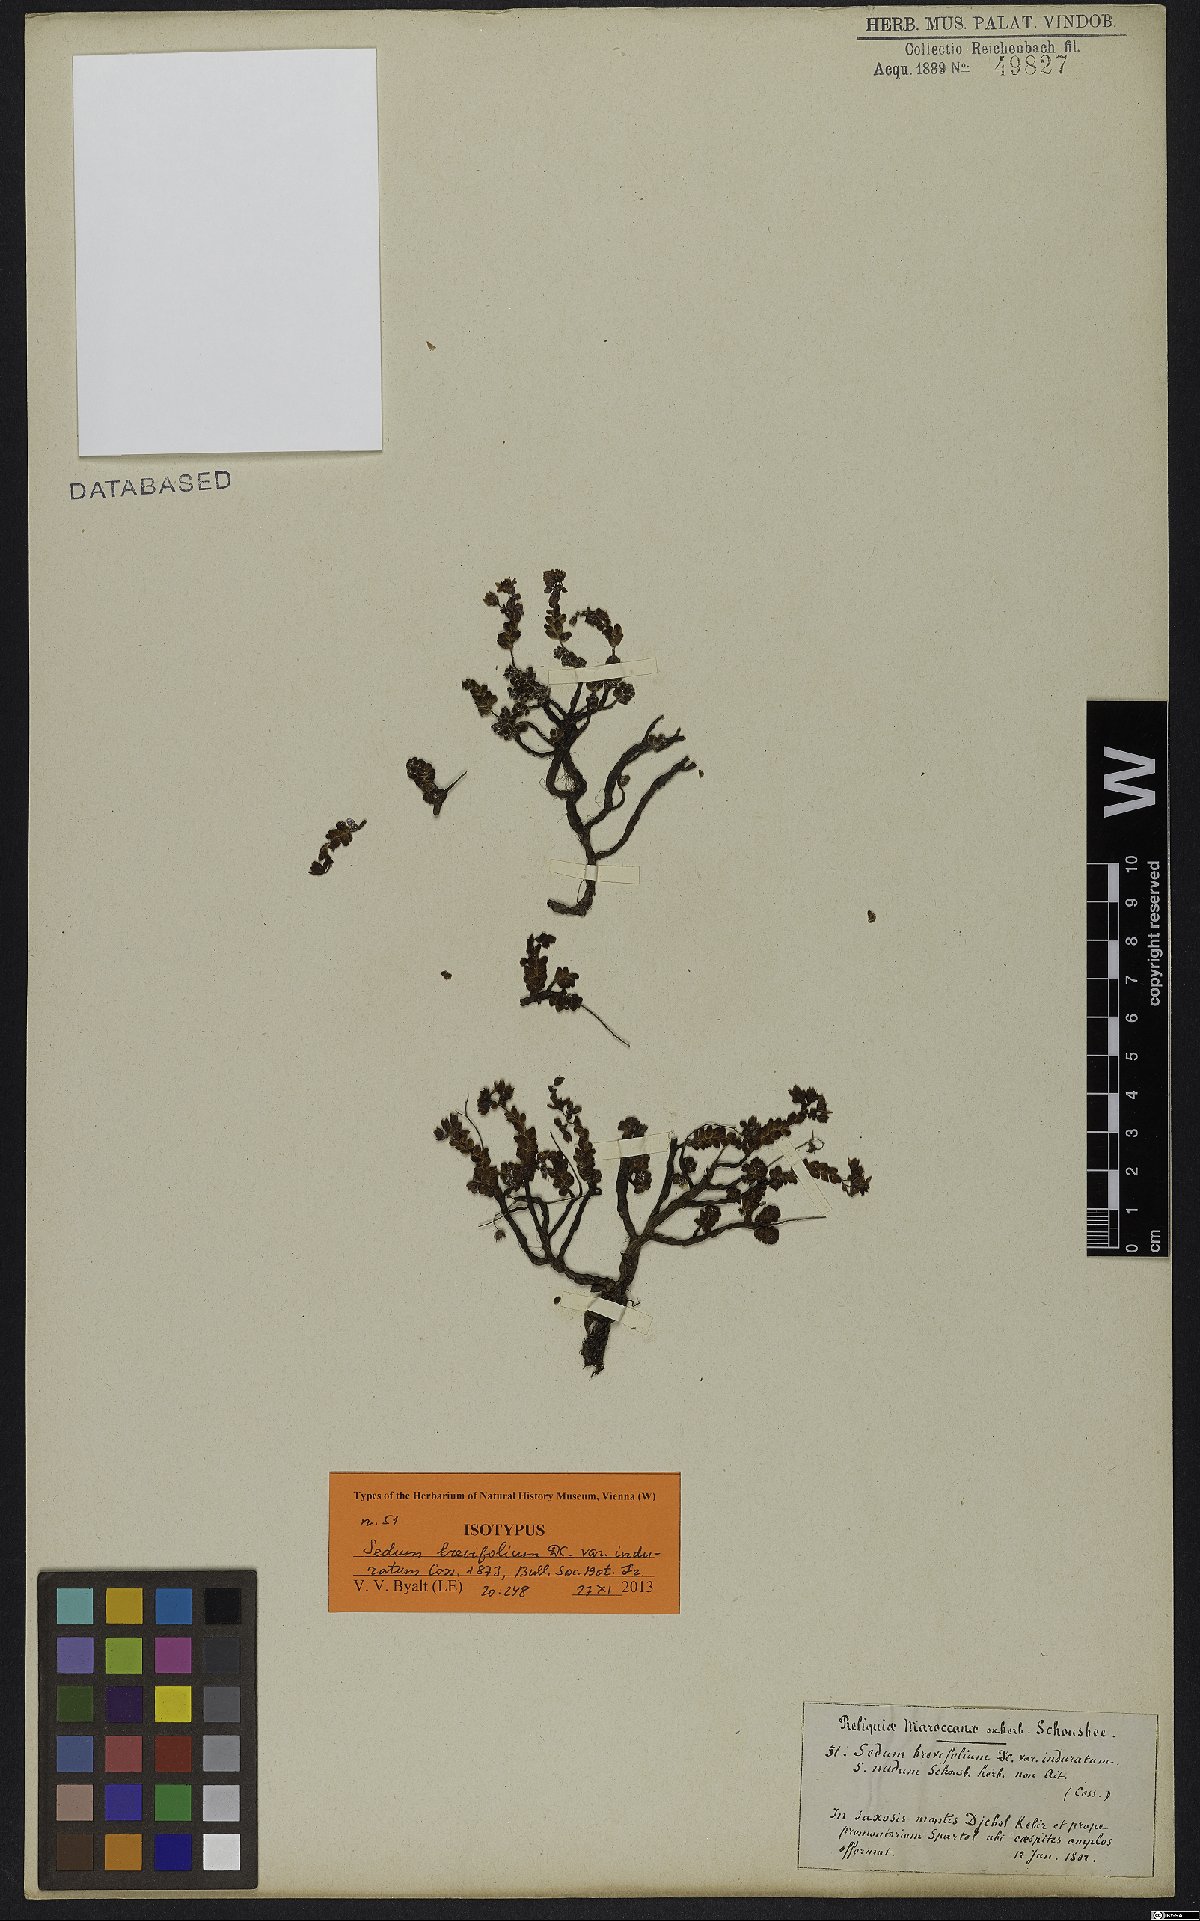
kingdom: Plantae
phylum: Tracheophyta
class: Magnoliopsida
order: Saxifragales
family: Crassulaceae
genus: Sedum
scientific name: Sedum brevifolium
